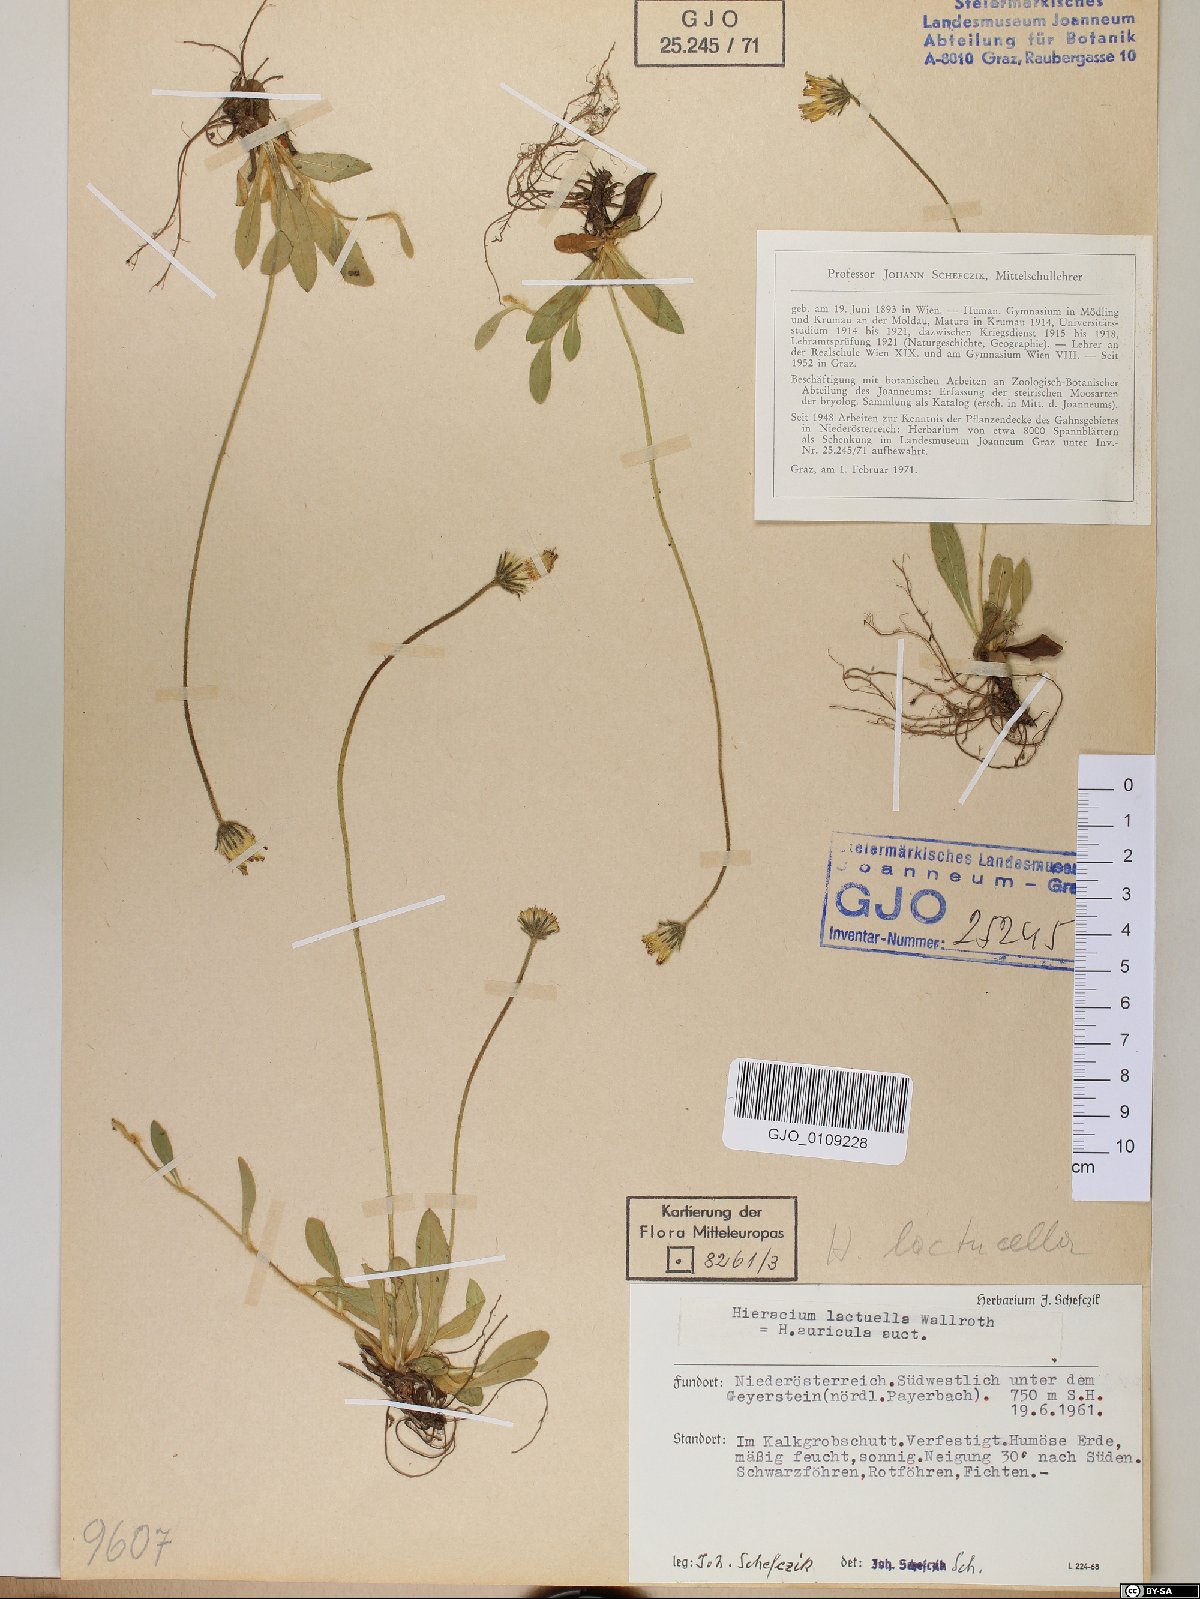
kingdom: Plantae
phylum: Tracheophyta
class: Magnoliopsida
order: Asterales
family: Asteraceae
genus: Pilosella
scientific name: Pilosella lactucella
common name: Glaucous fox-and-cubs
